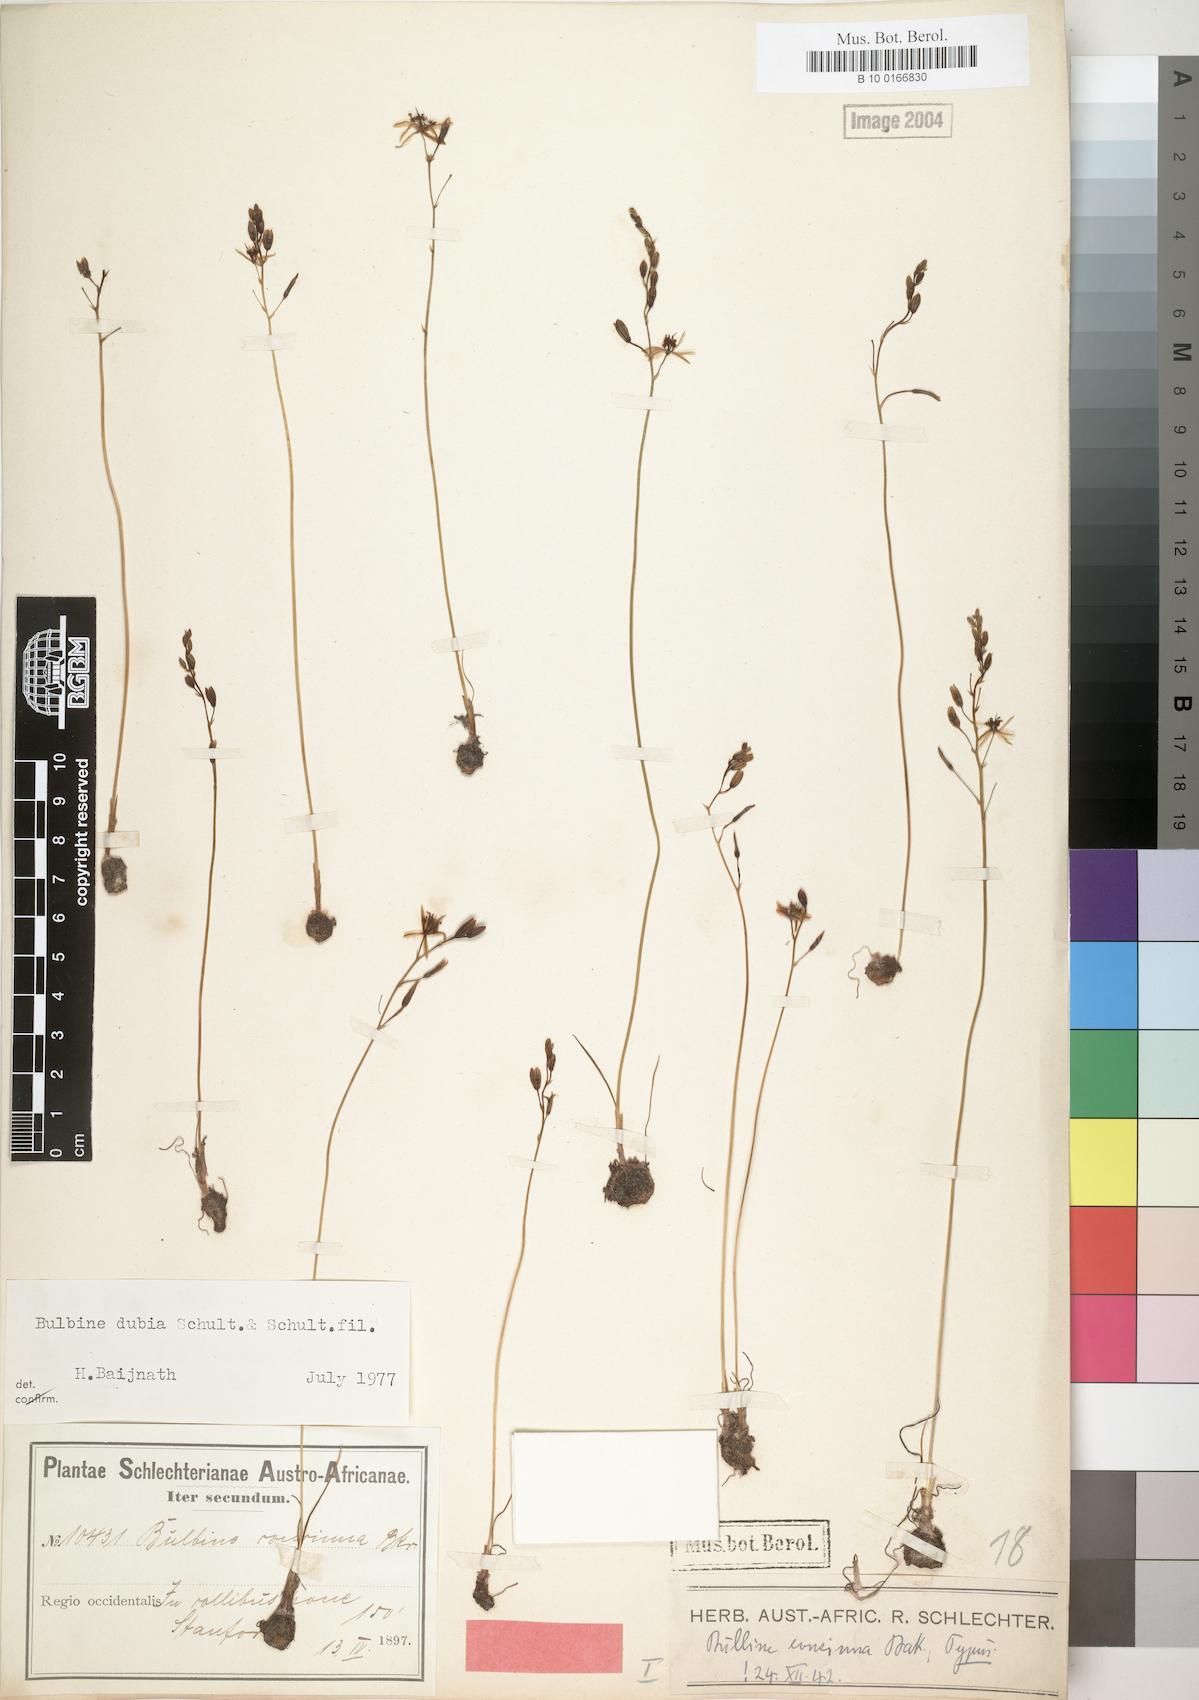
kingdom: Plantae
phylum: Tracheophyta
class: Liliopsida
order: Asparagales
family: Asphodelaceae
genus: Bulbine
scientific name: Bulbine favosa
